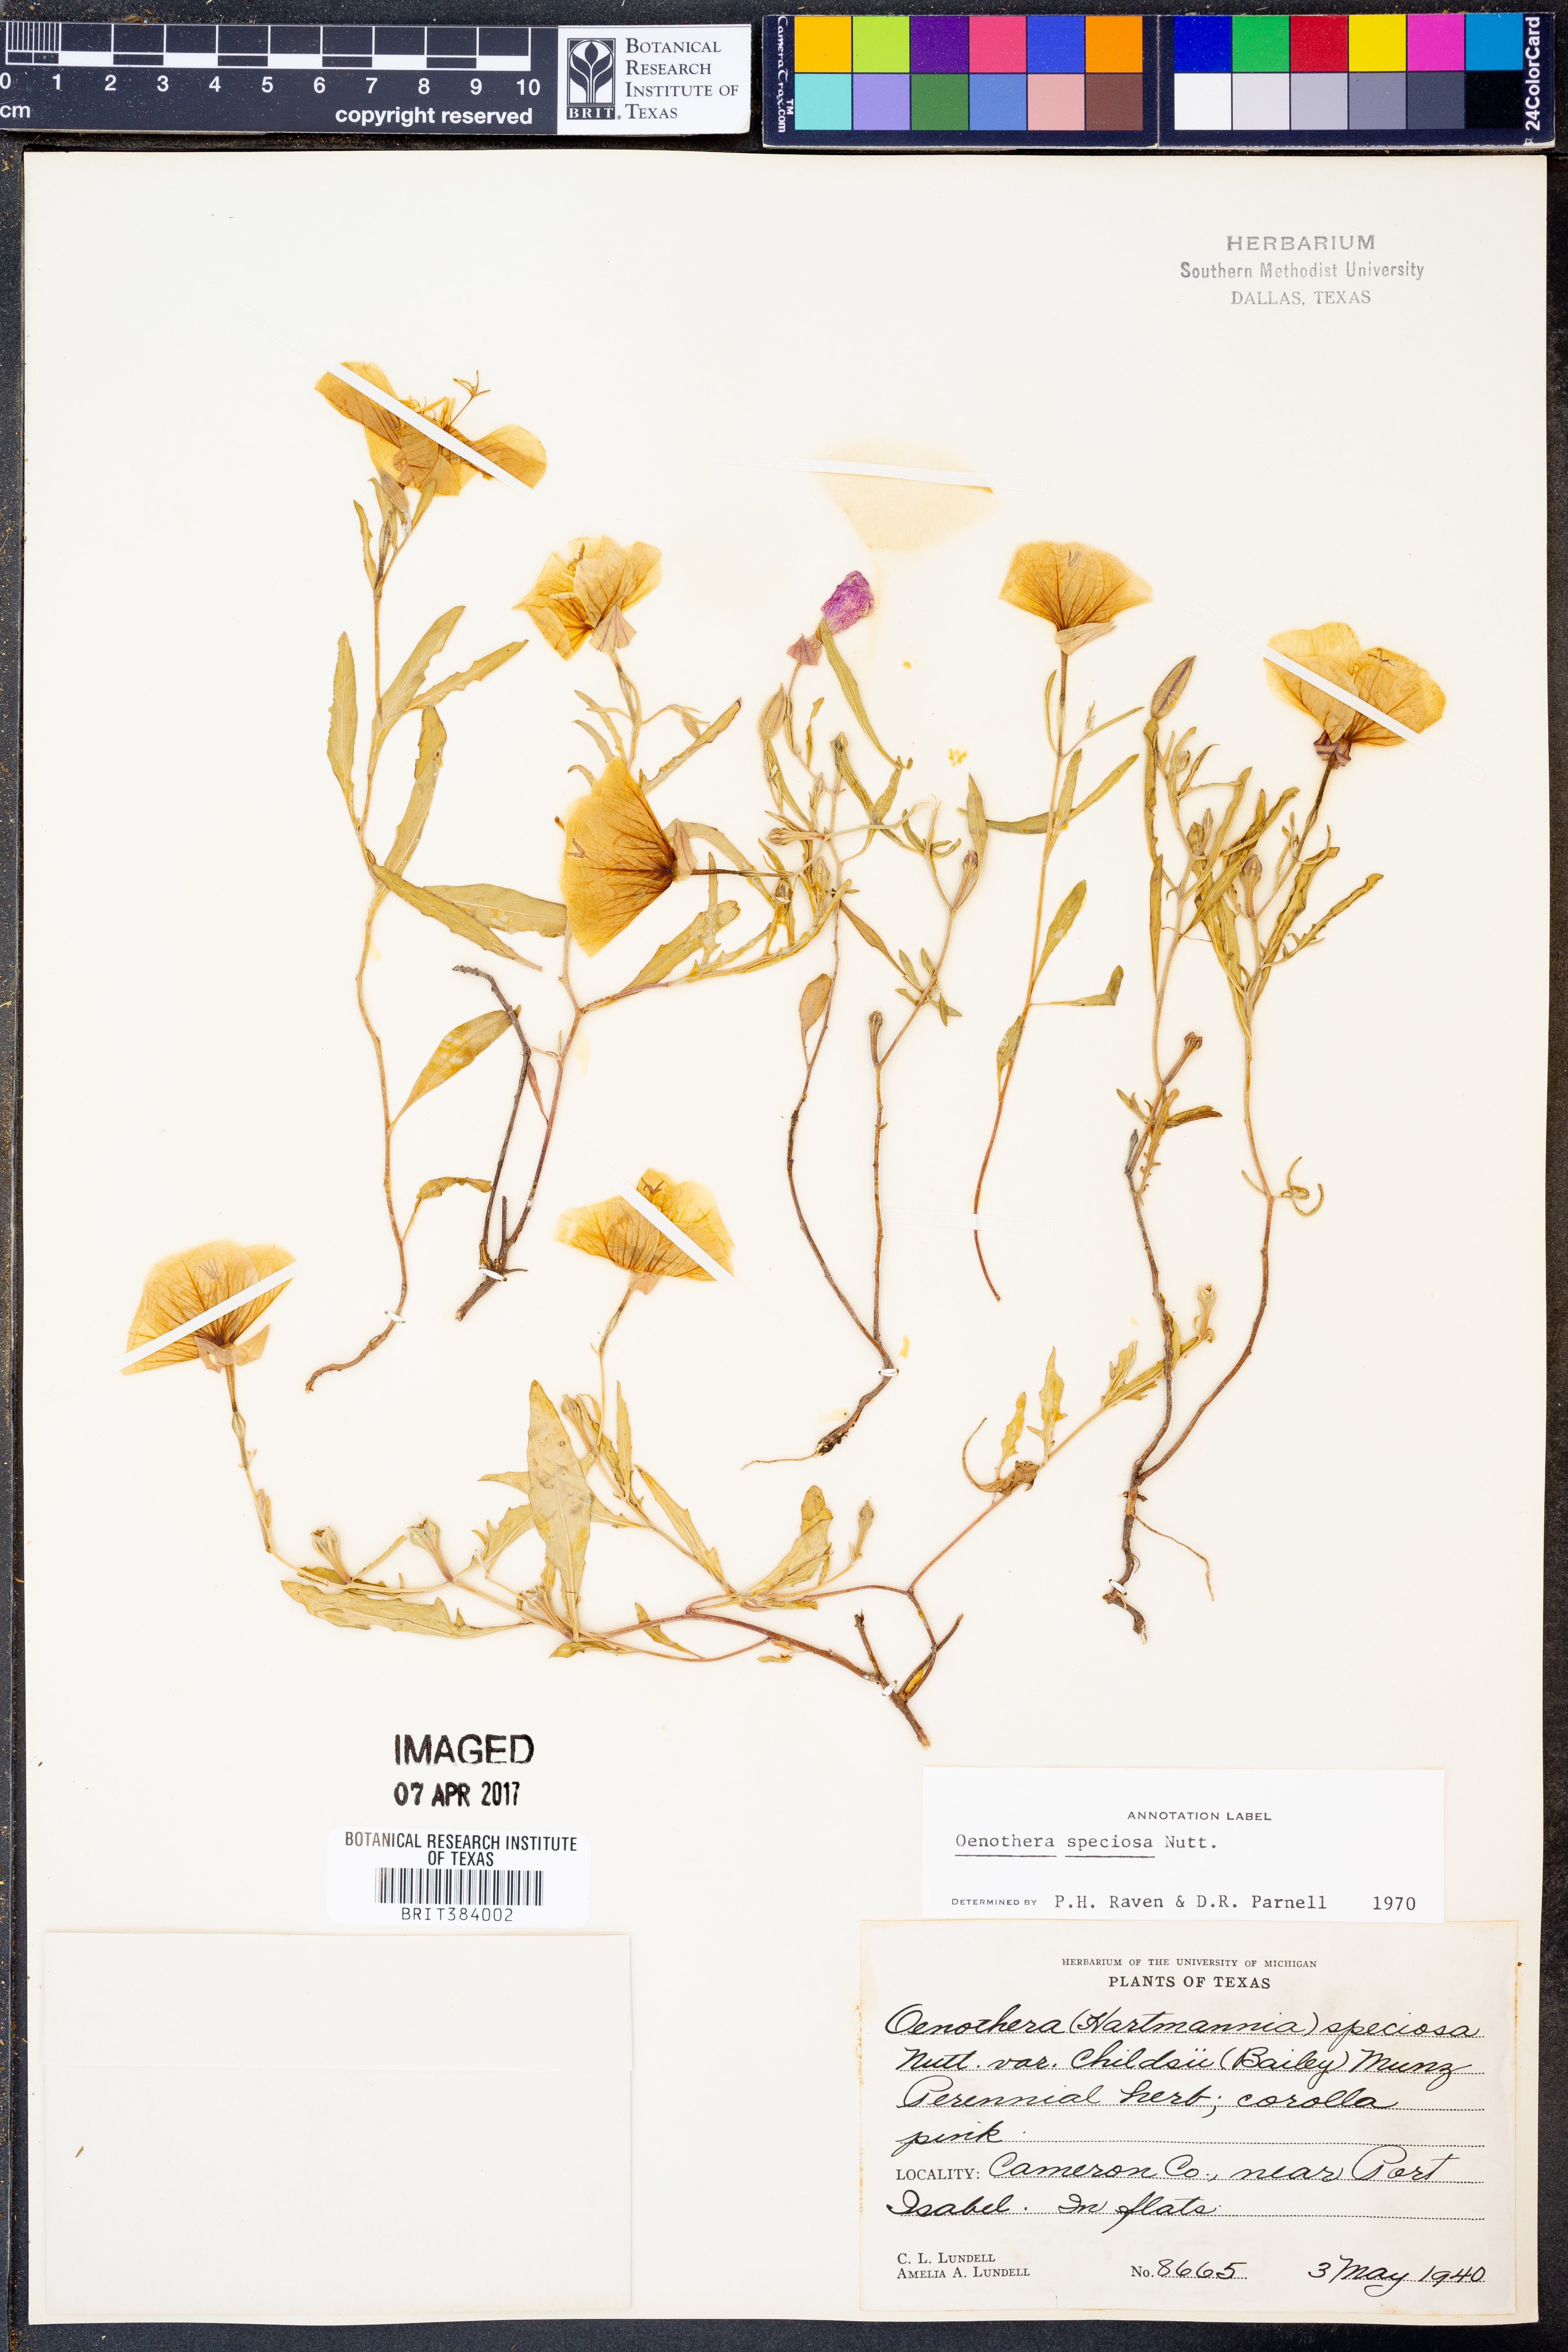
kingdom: Plantae
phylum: Tracheophyta
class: Magnoliopsida
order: Myrtales
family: Onagraceae
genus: Oenothera
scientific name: Oenothera speciosa
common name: White evening-primrose
